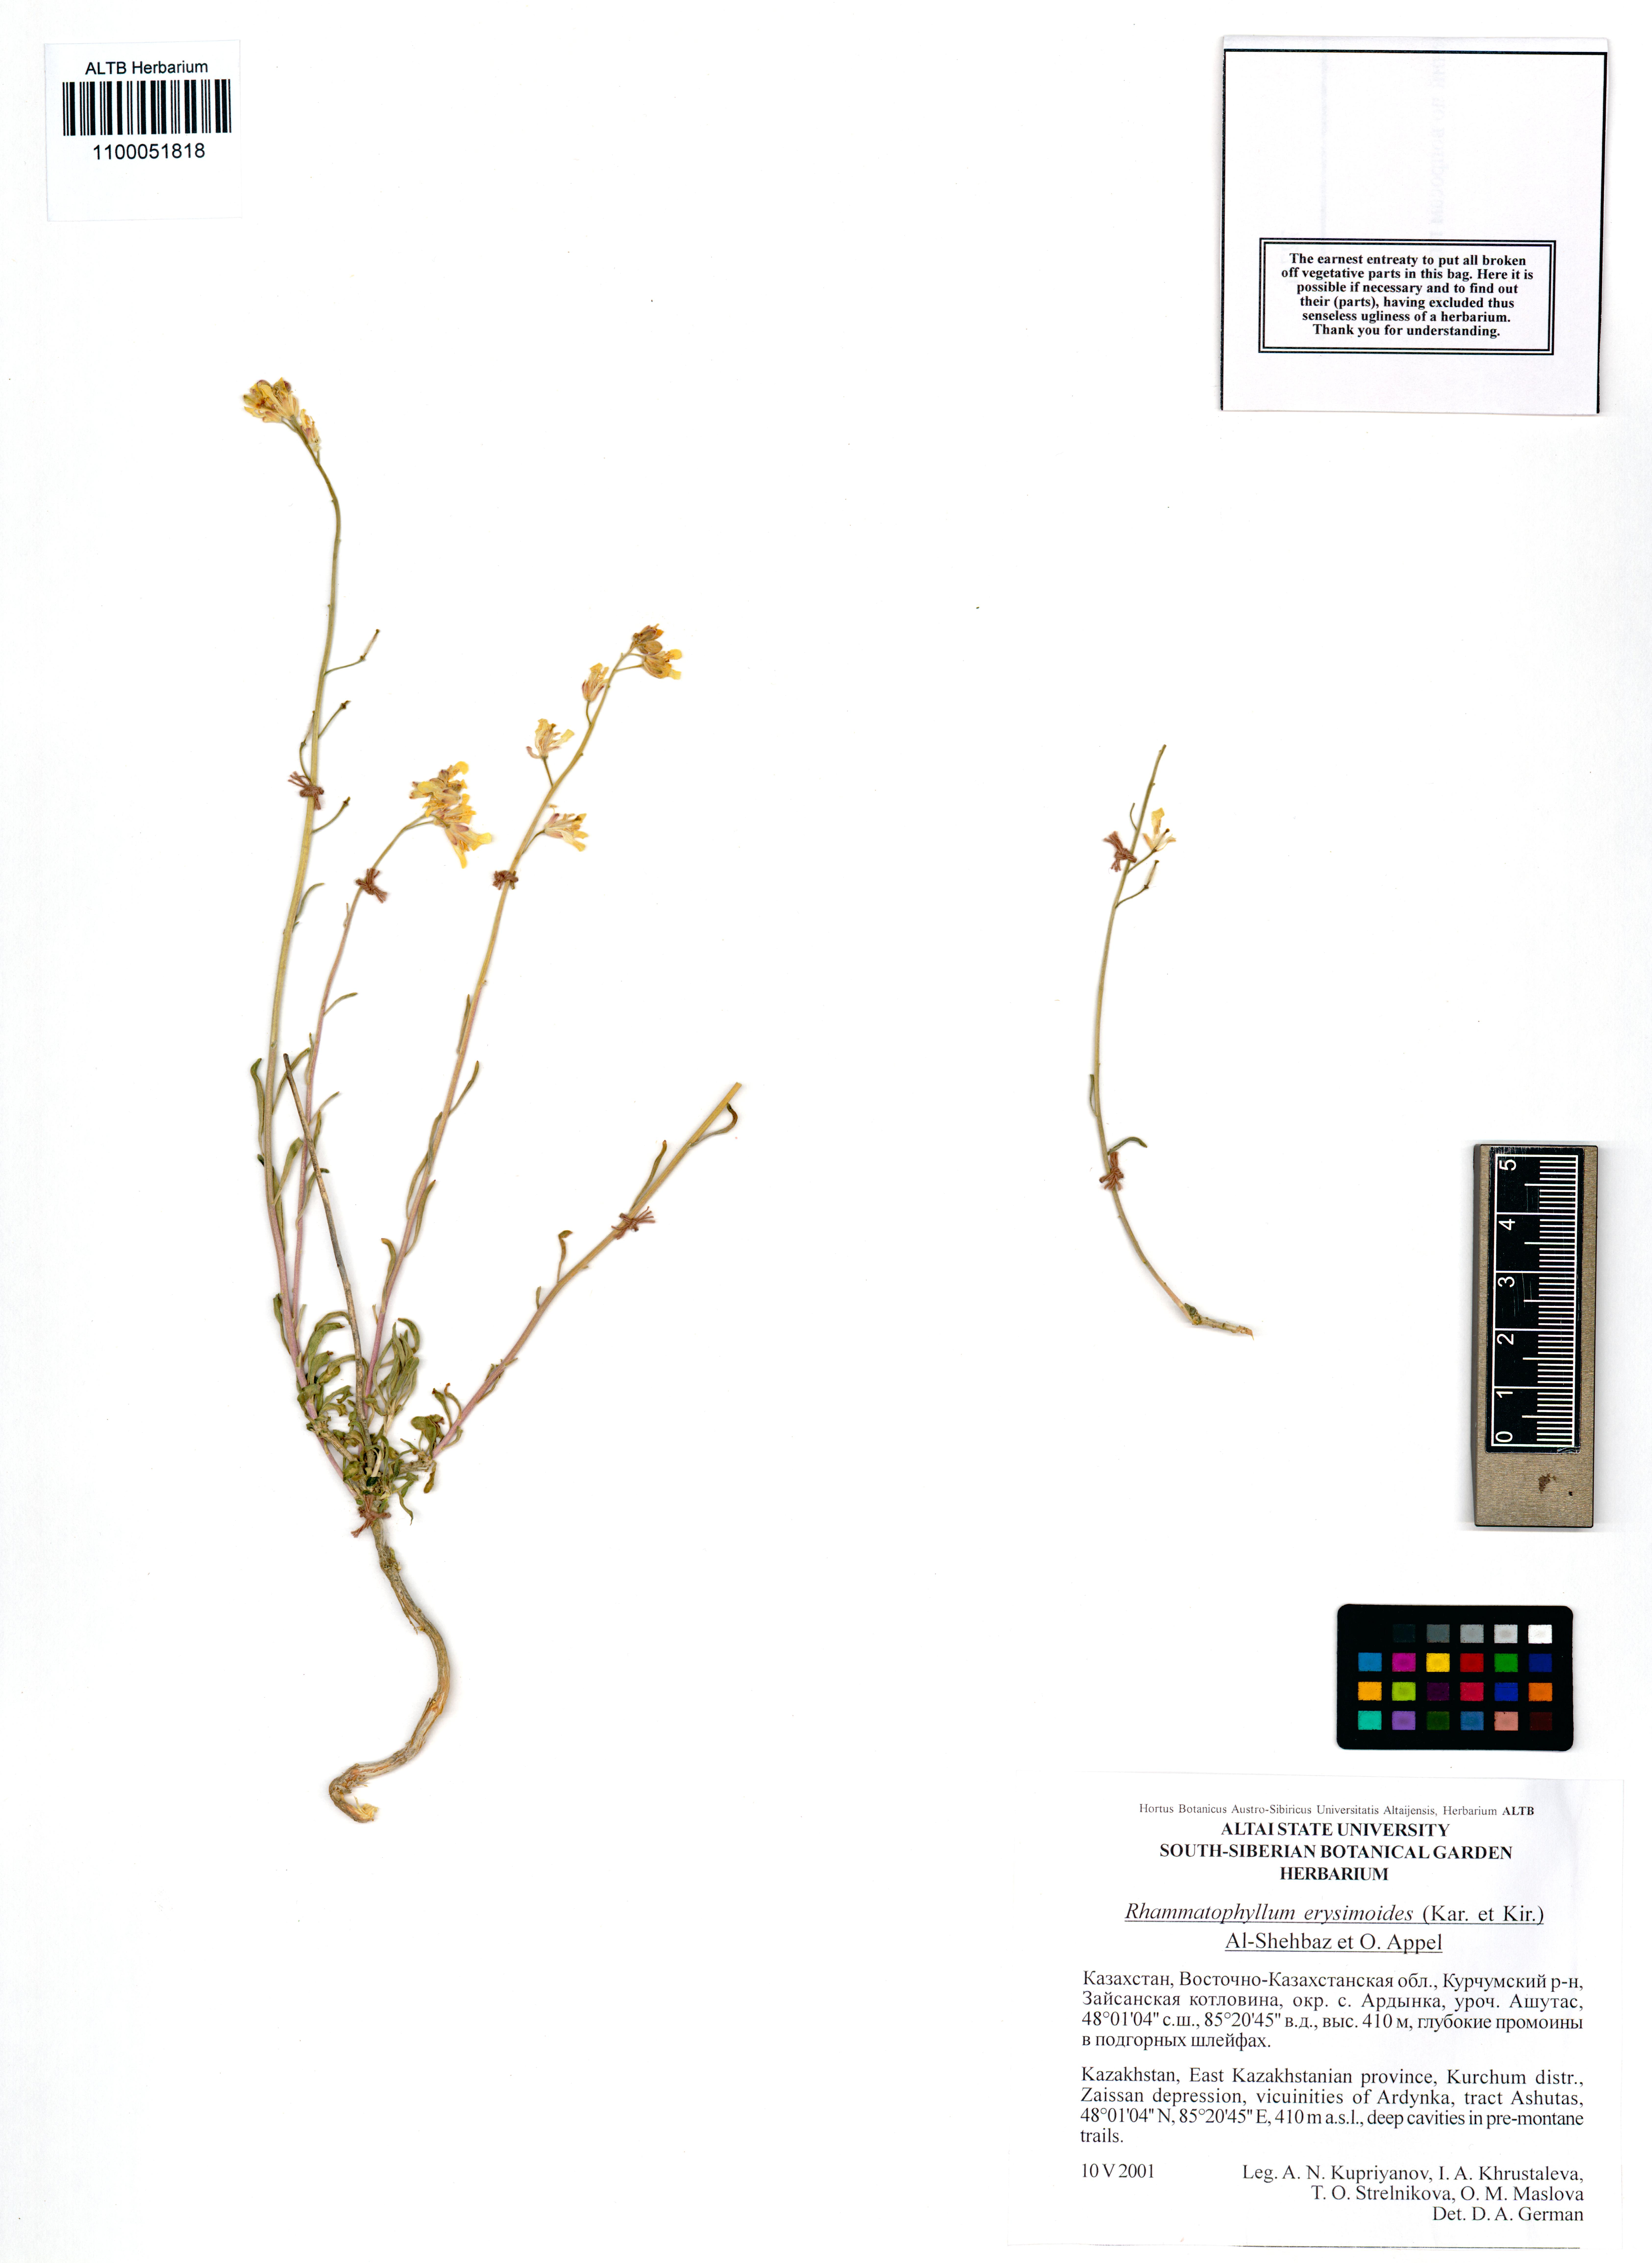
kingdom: Plantae
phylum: Tracheophyta
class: Magnoliopsida
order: Brassicales
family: Brassicaceae
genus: Rhammatophyllum
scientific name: Rhammatophyllum erysimoides
